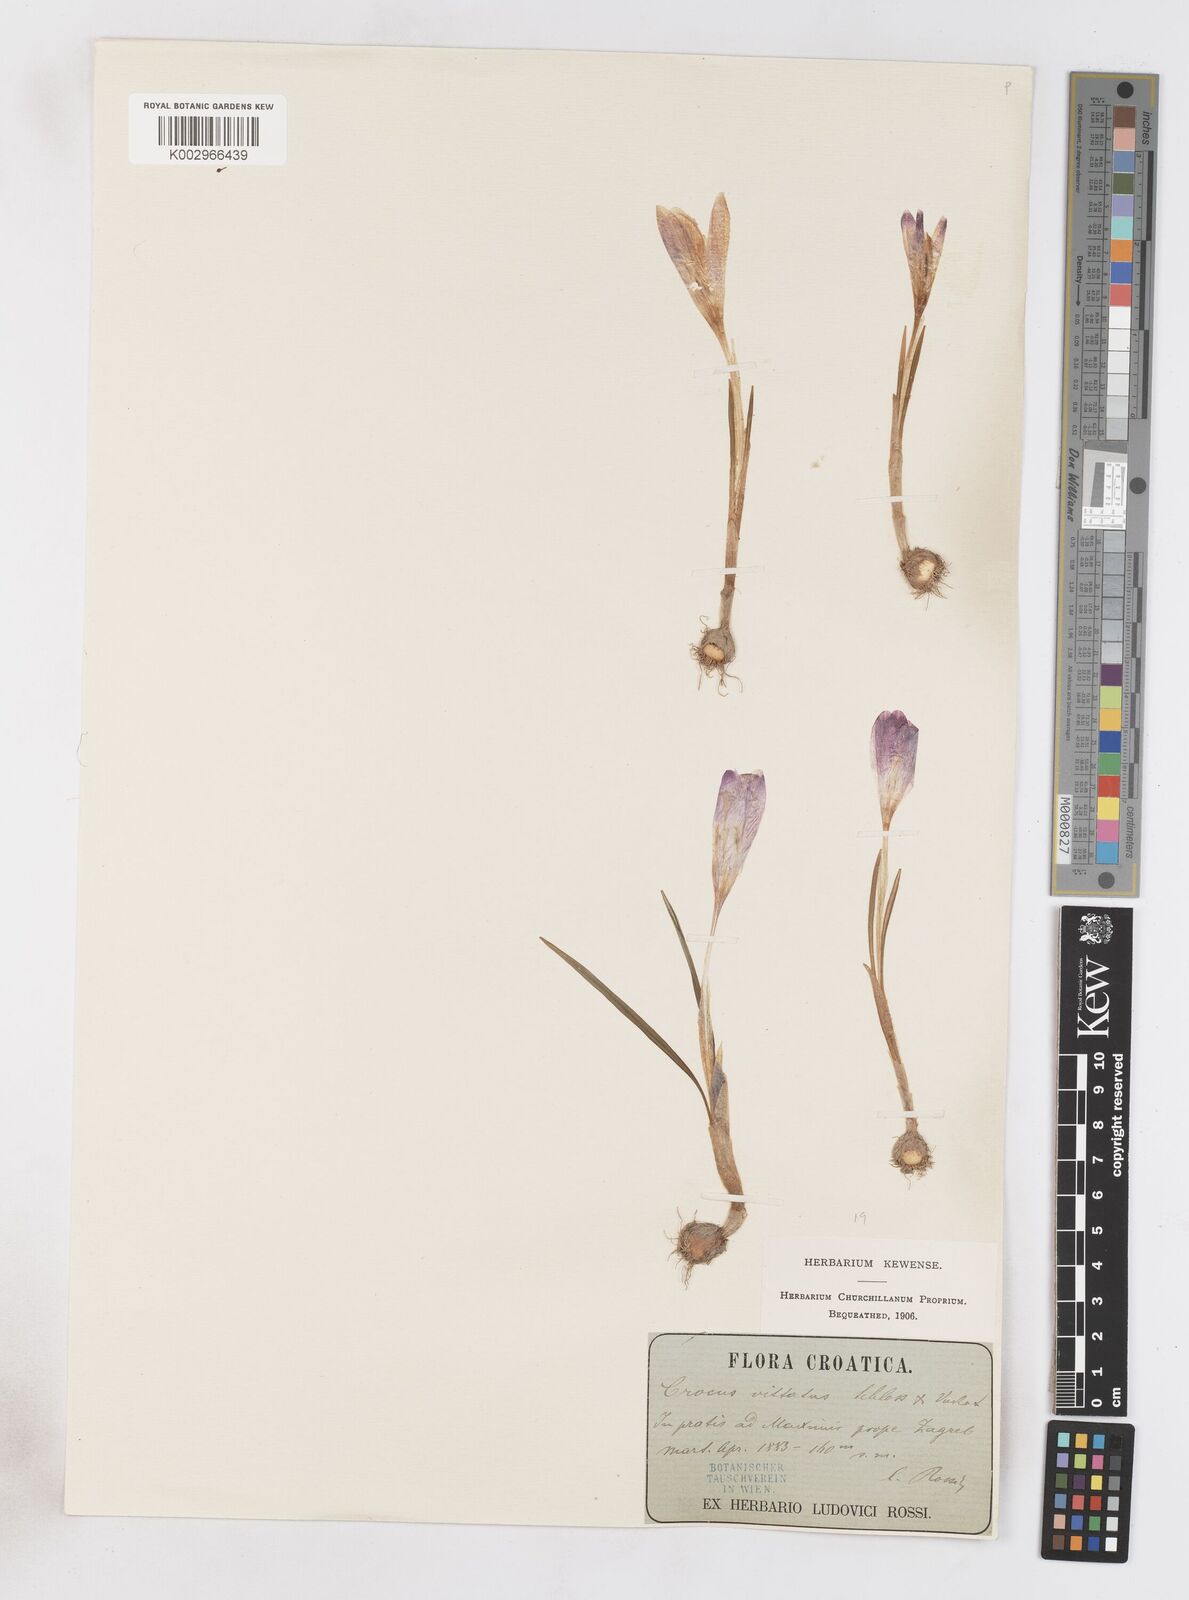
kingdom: Plantae
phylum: Tracheophyta
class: Liliopsida
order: Asparagales
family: Iridaceae
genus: Crocus
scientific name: Crocus vernus
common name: Spring crocus
